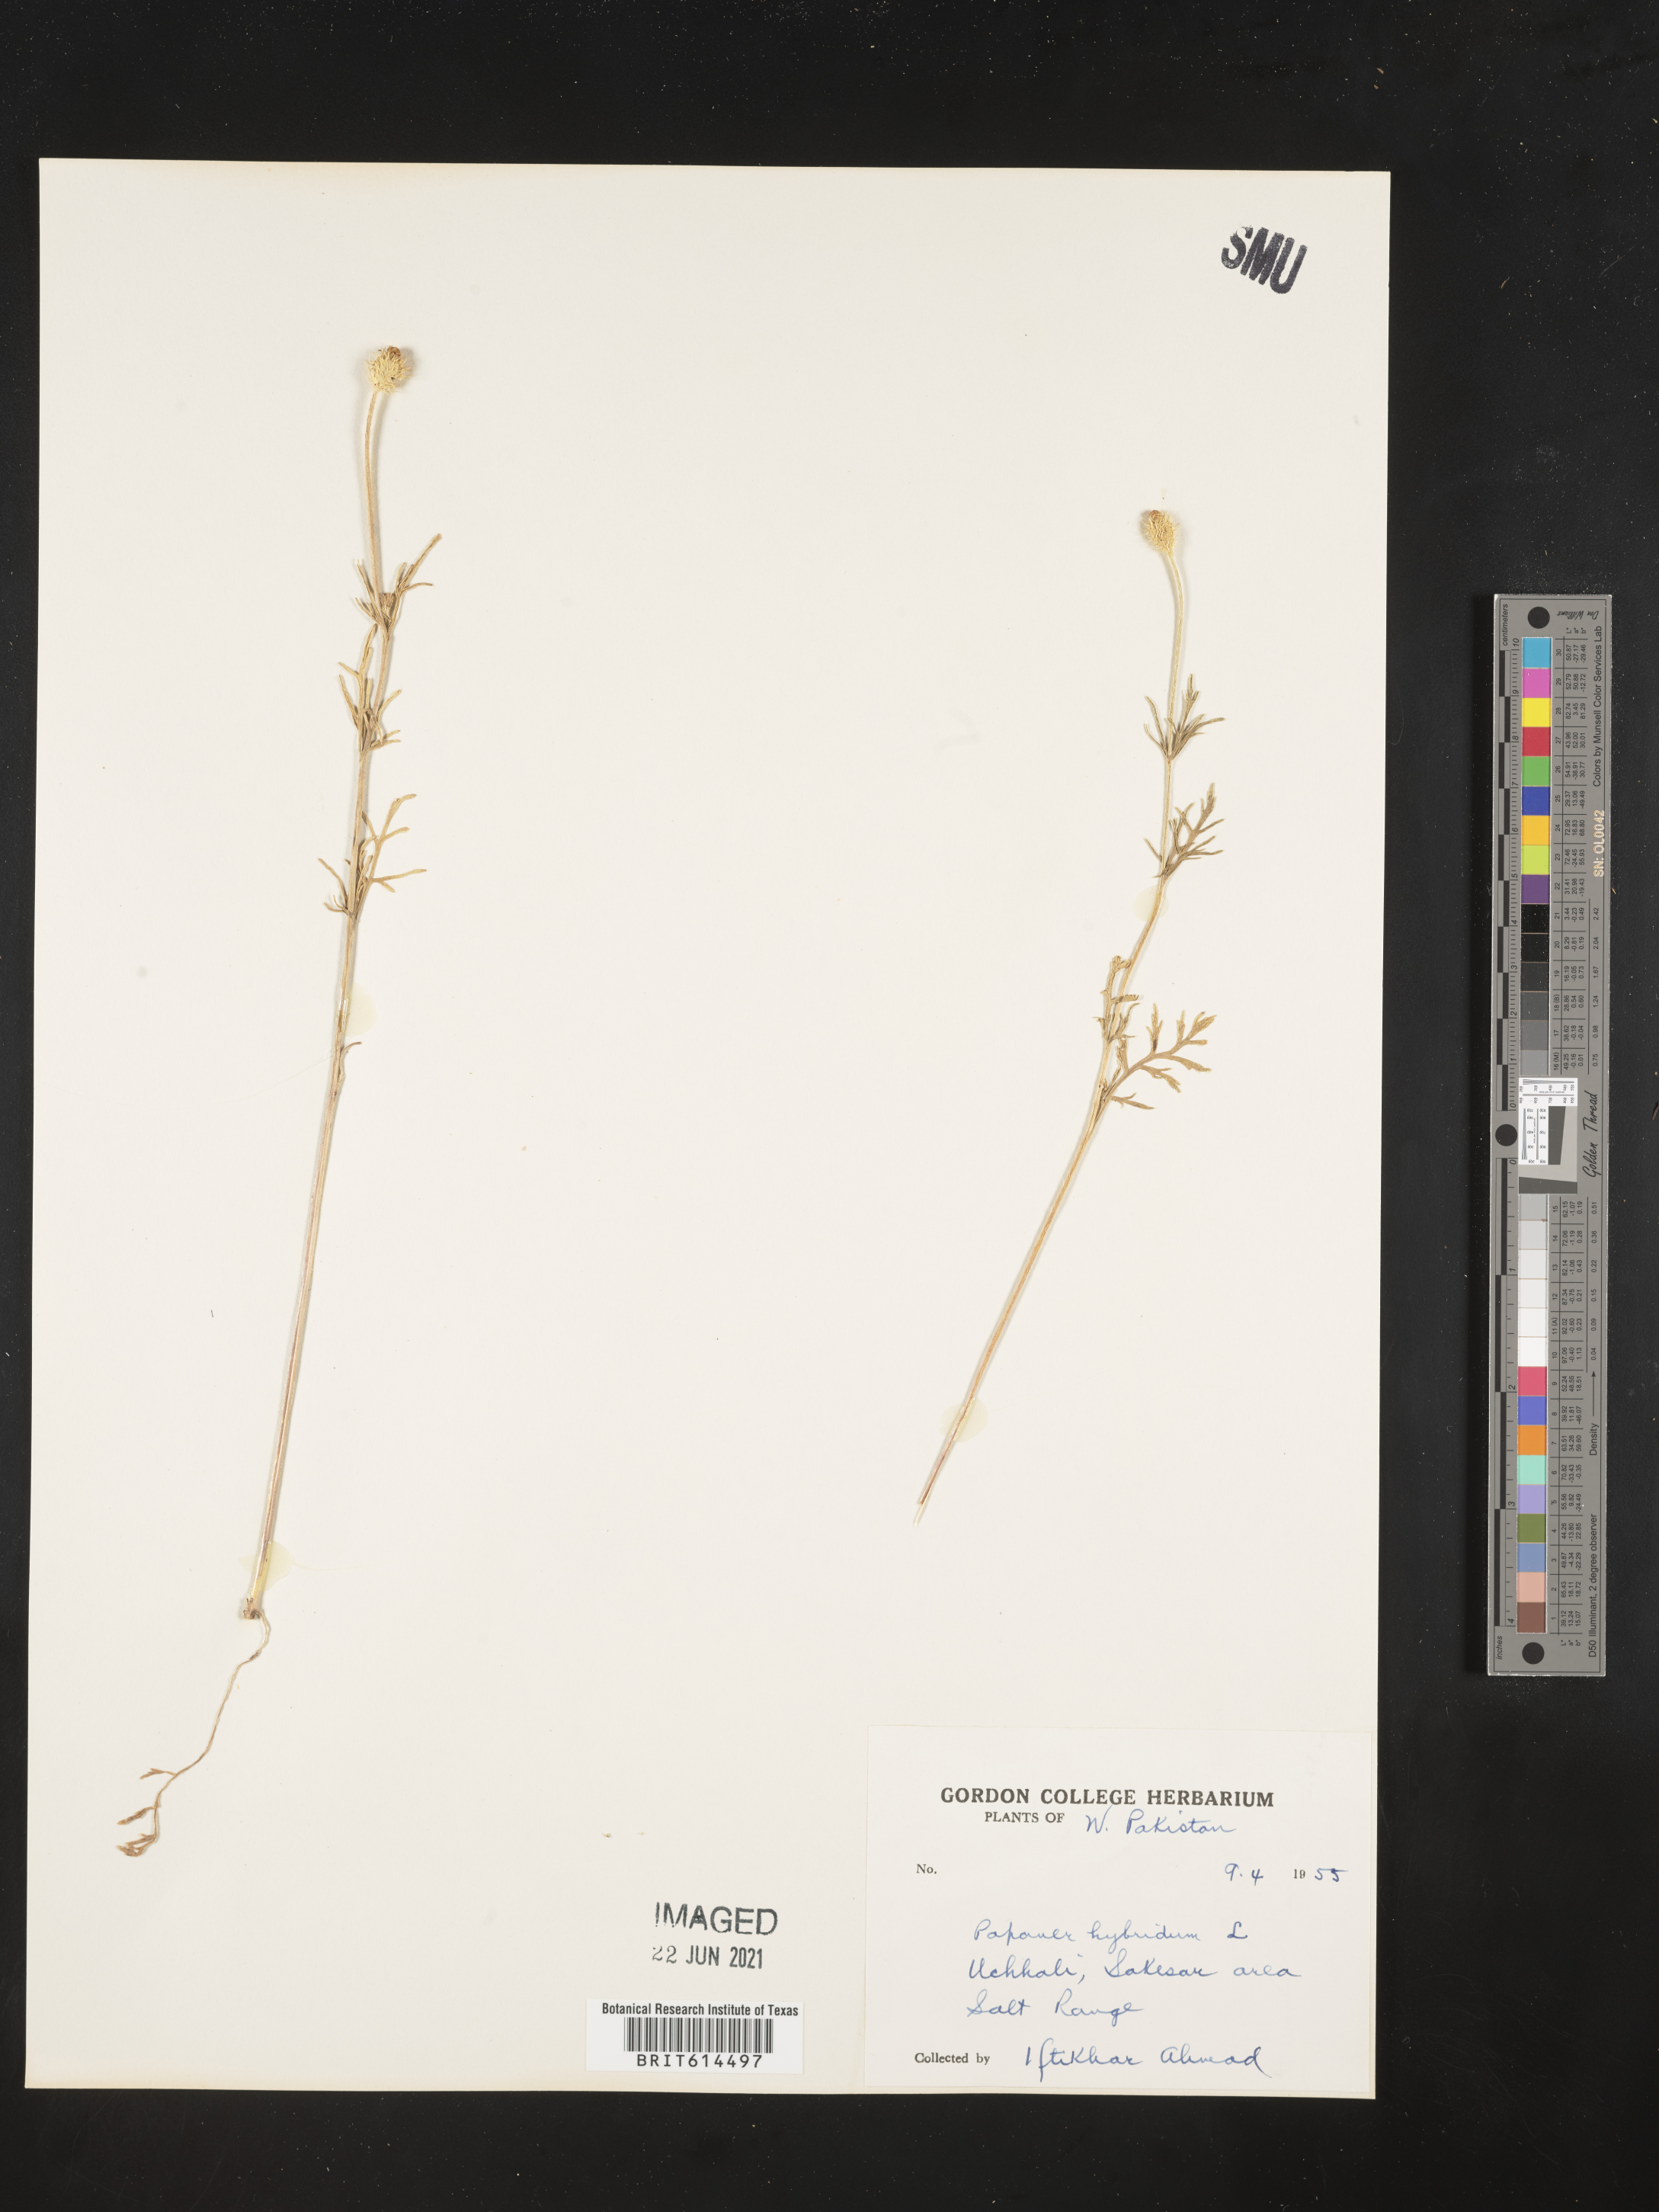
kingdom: Plantae
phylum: Tracheophyta
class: Magnoliopsida
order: Ranunculales
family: Papaveraceae
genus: Roemeria
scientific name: Roemeria hispida
